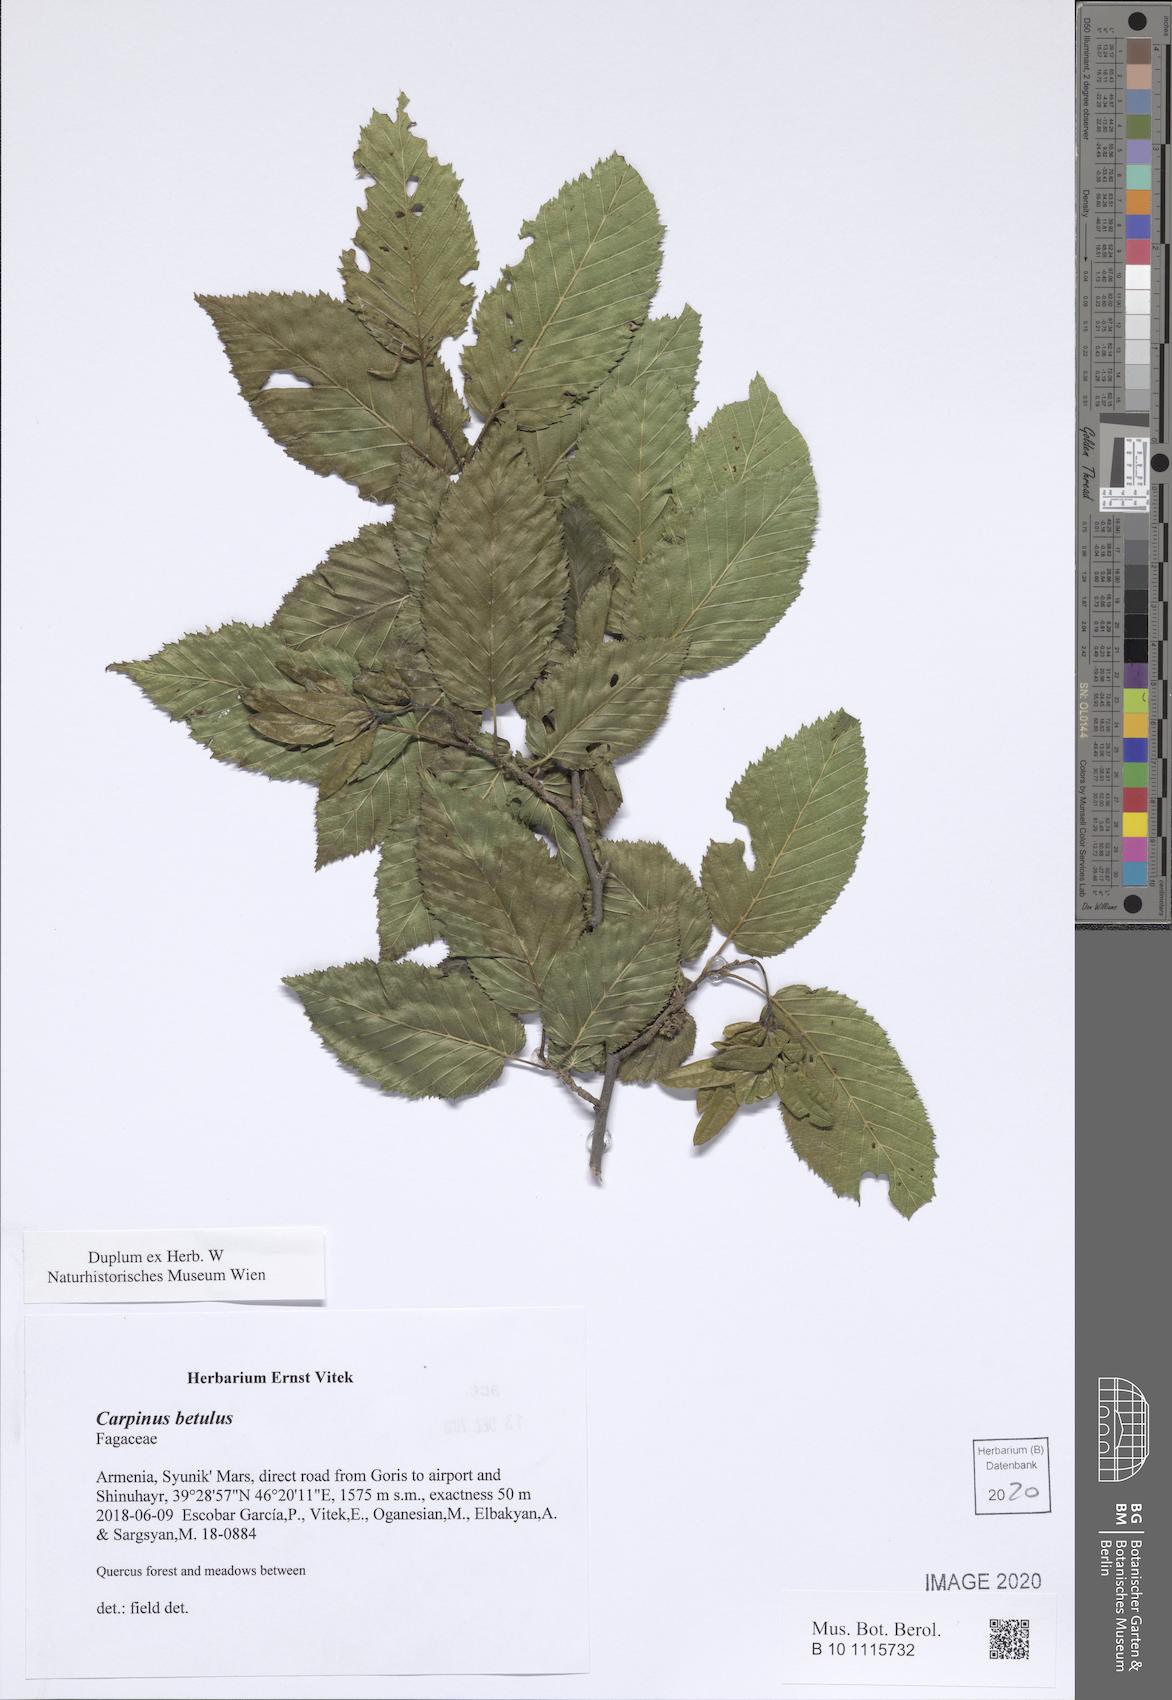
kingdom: Plantae
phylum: Tracheophyta
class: Magnoliopsida
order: Fagales
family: Betulaceae
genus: Carpinus
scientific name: Carpinus betulus
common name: Hornbeam
